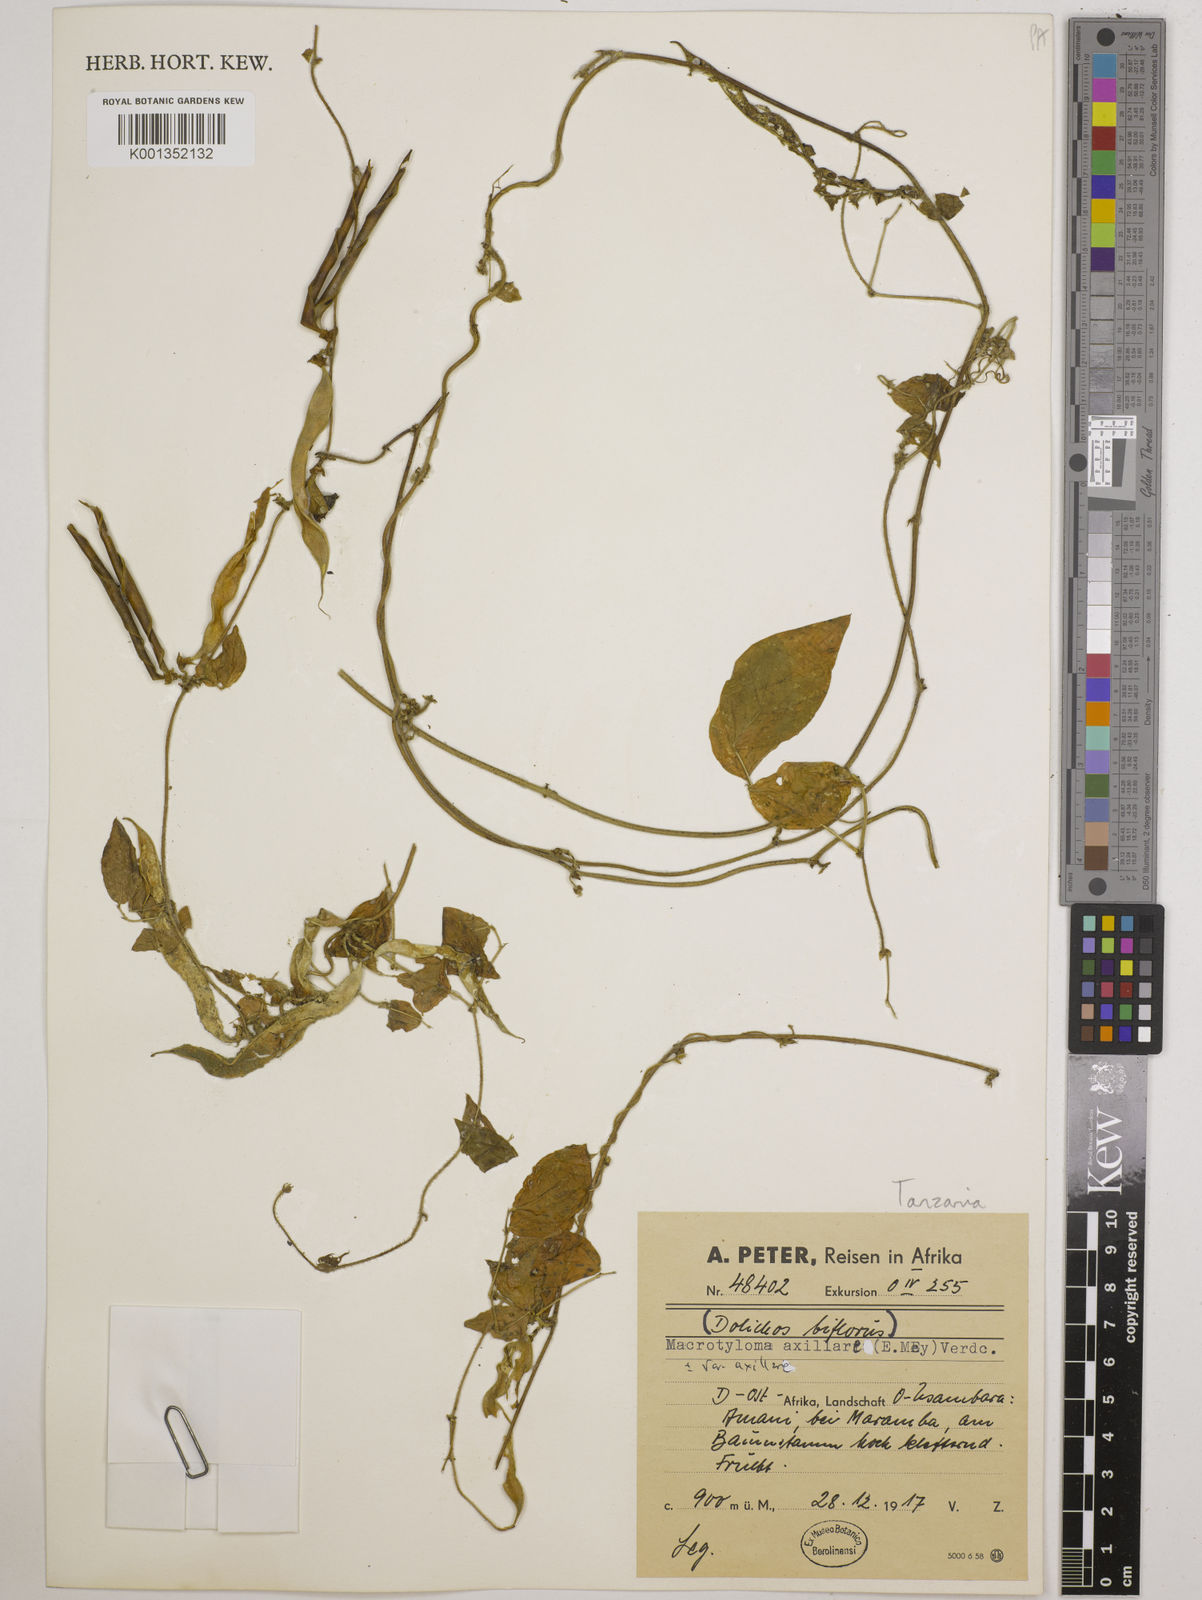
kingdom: Plantae
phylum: Tracheophyta
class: Magnoliopsida
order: Fabales
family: Fabaceae
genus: Macrotyloma
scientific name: Macrotyloma axillare
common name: Perennial horsegram
